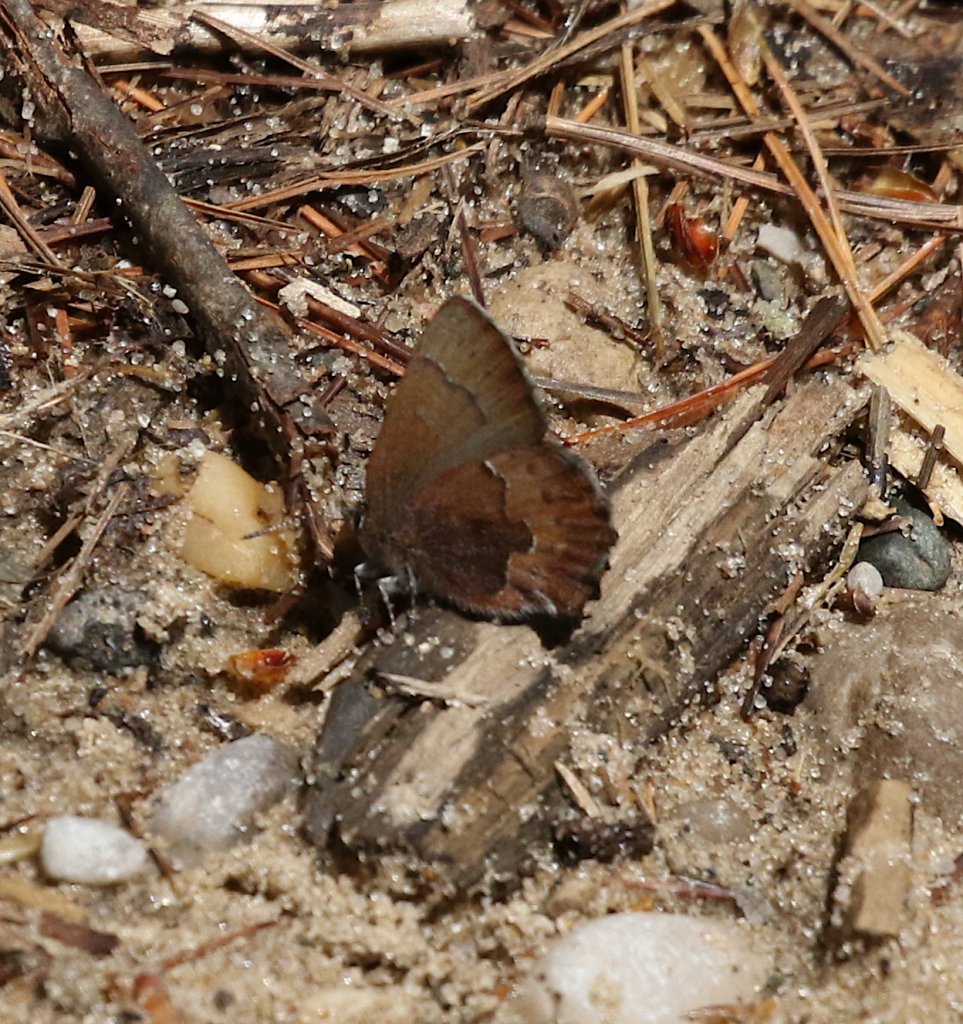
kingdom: Animalia
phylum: Arthropoda
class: Insecta
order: Lepidoptera
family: Lycaenidae
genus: Incisalia
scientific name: Incisalia irioides
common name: Brown Elfin
